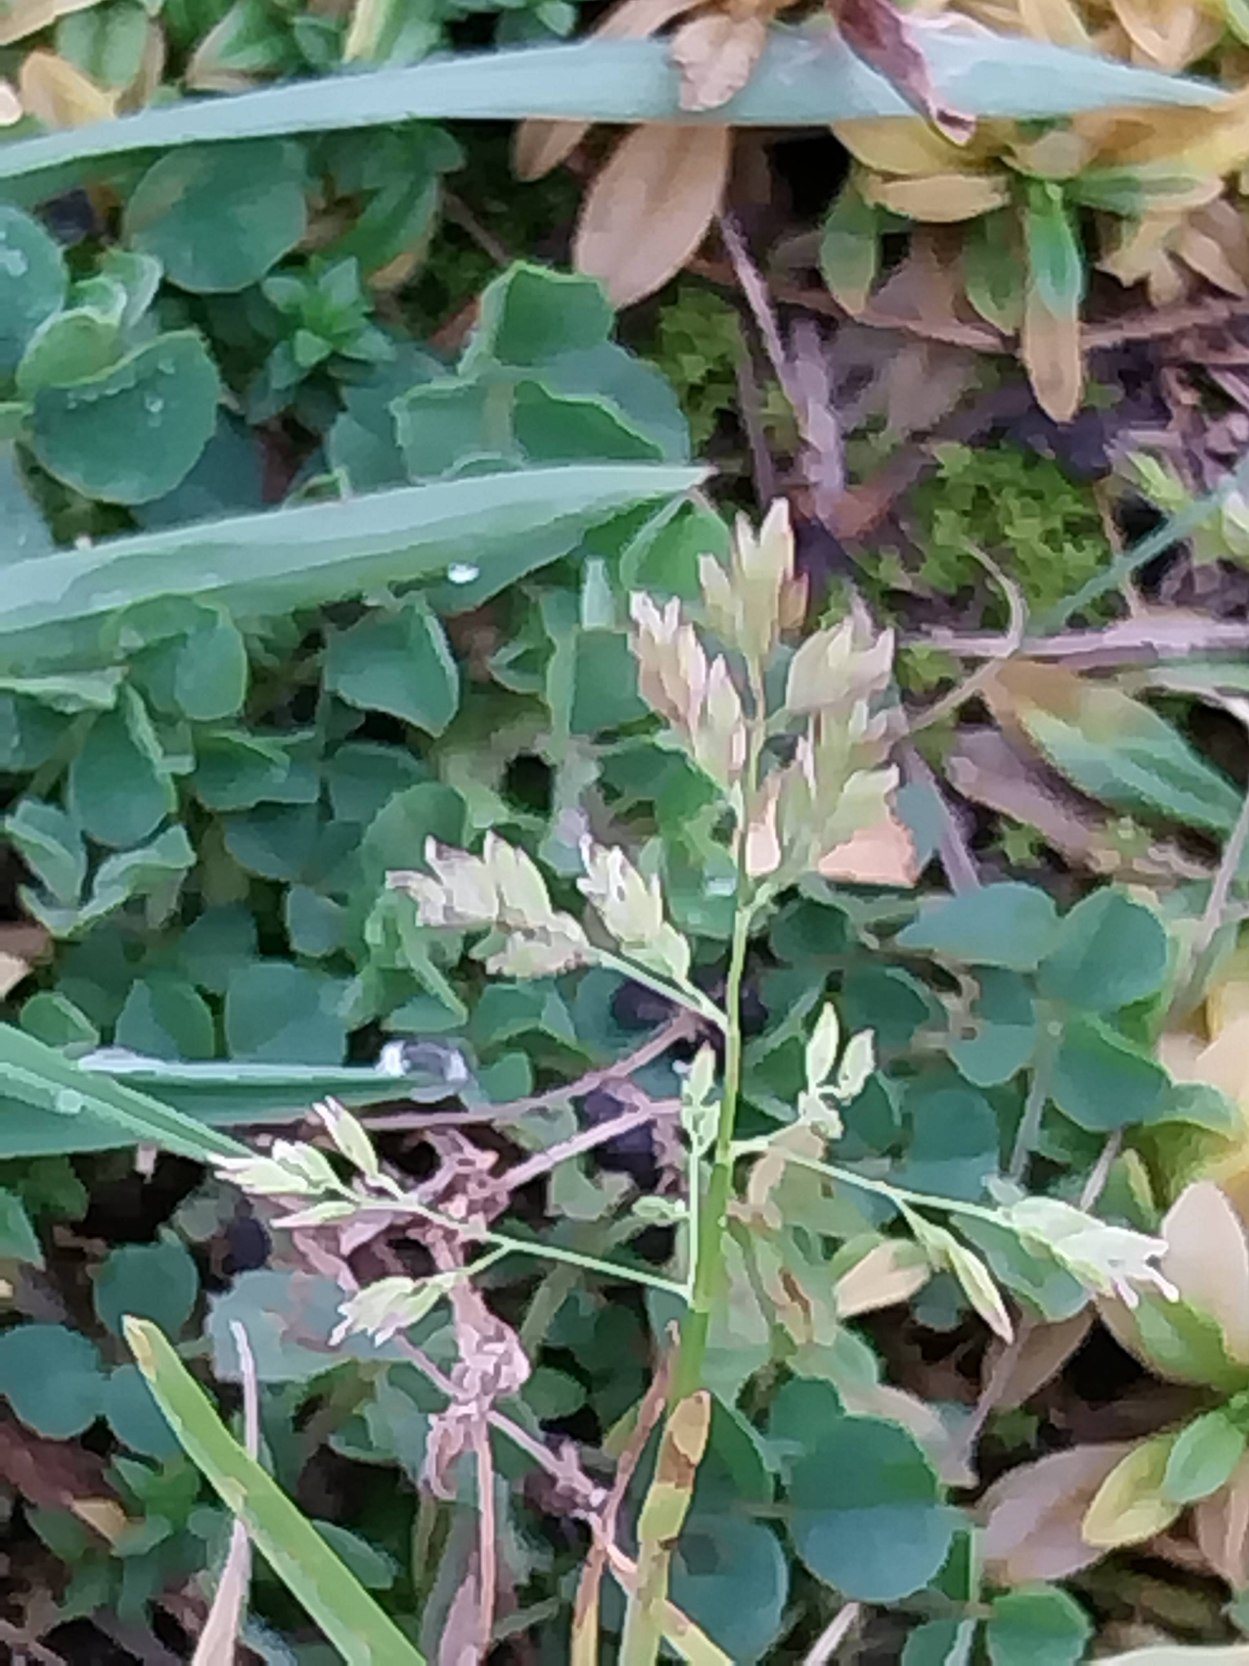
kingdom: Plantae
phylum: Tracheophyta
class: Liliopsida
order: Poales
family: Poaceae
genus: Poa
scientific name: Poa annua
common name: Enårig rapgræs
